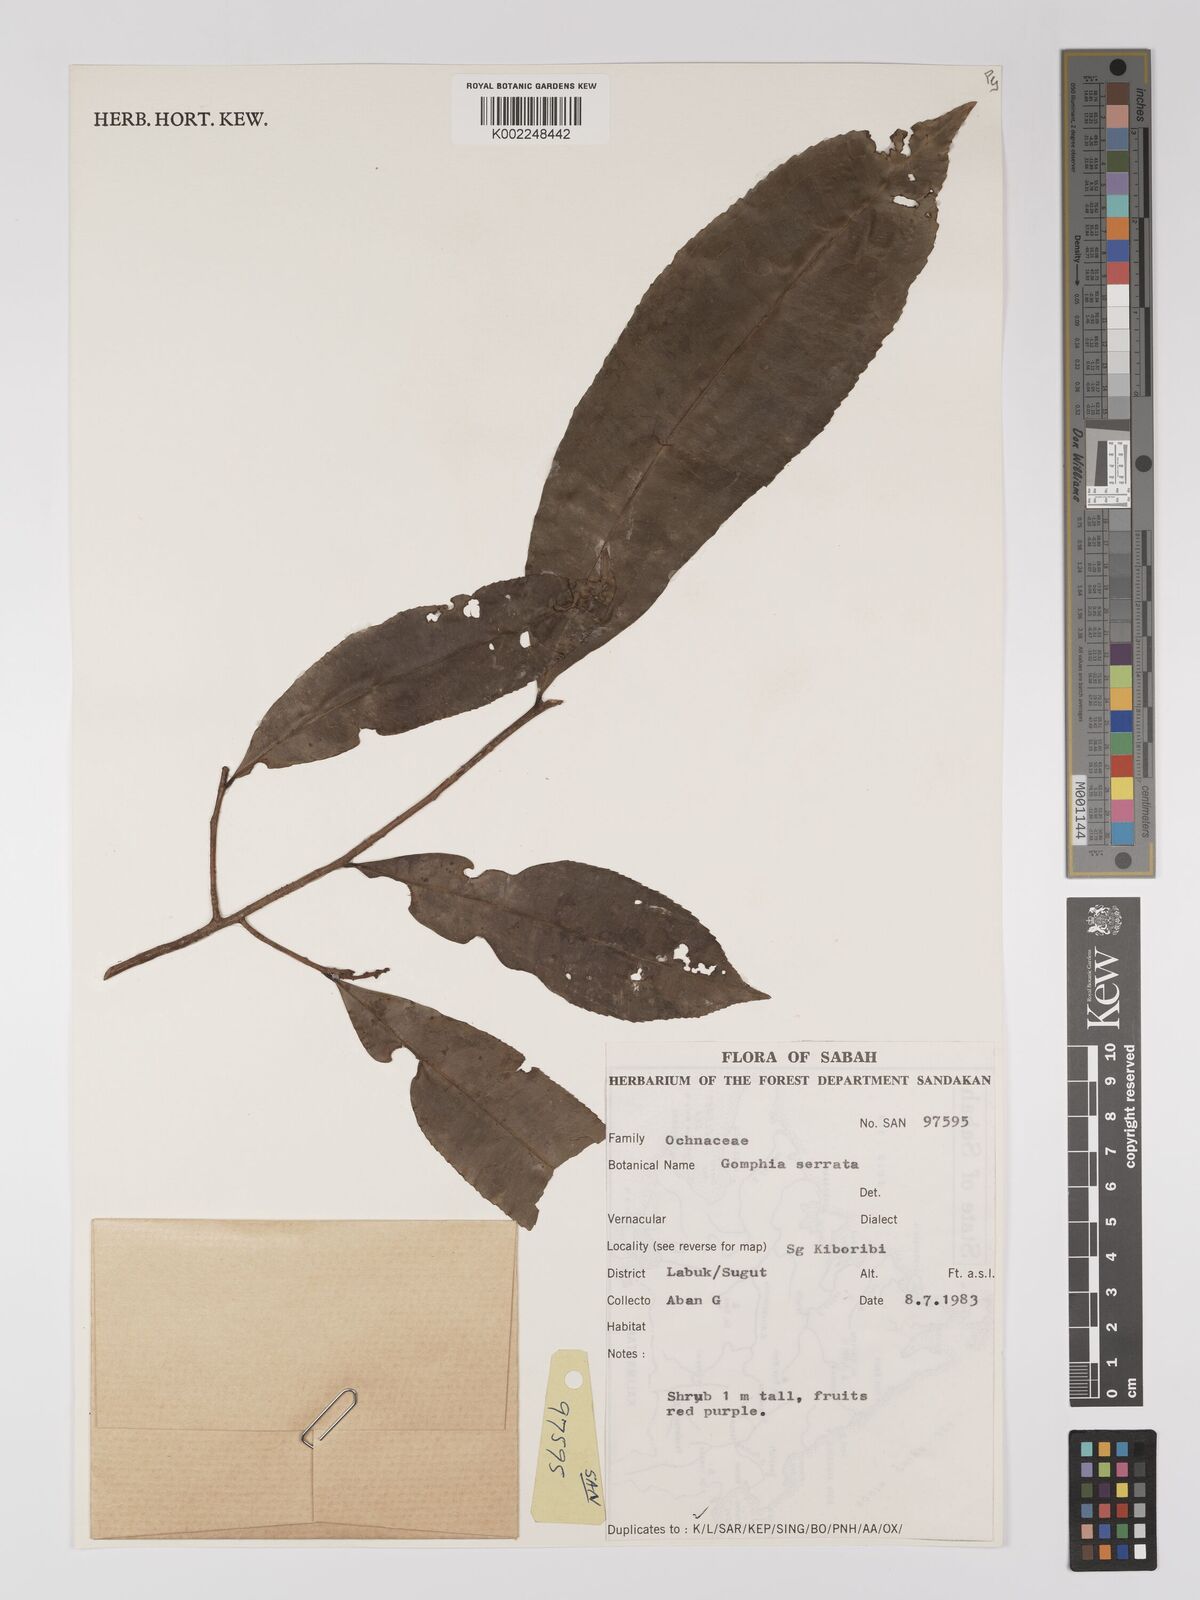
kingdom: Plantae
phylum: Tracheophyta
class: Magnoliopsida
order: Malpighiales
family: Ochnaceae
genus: Gomphia
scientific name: Gomphia serrata
